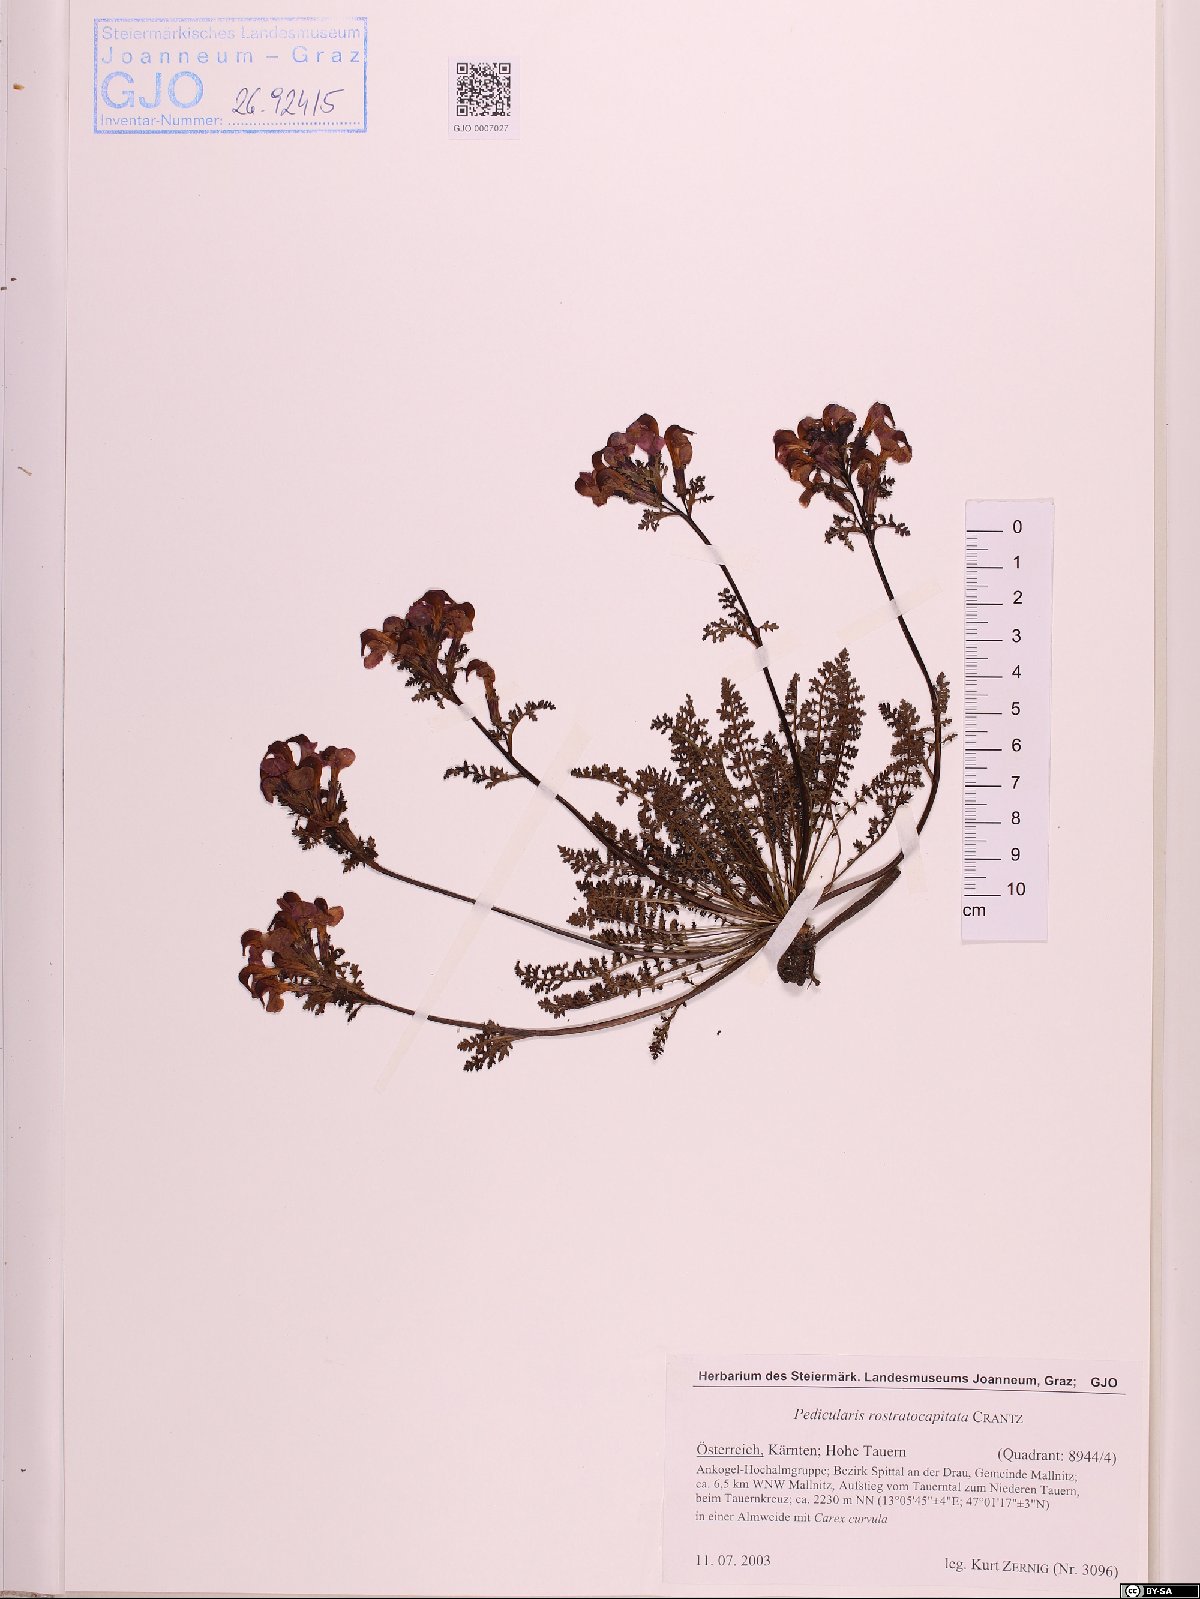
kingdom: Plantae
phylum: Tracheophyta
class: Magnoliopsida
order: Lamiales
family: Orobanchaceae
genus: Pedicularis
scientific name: Pedicularis rostratocapitata
